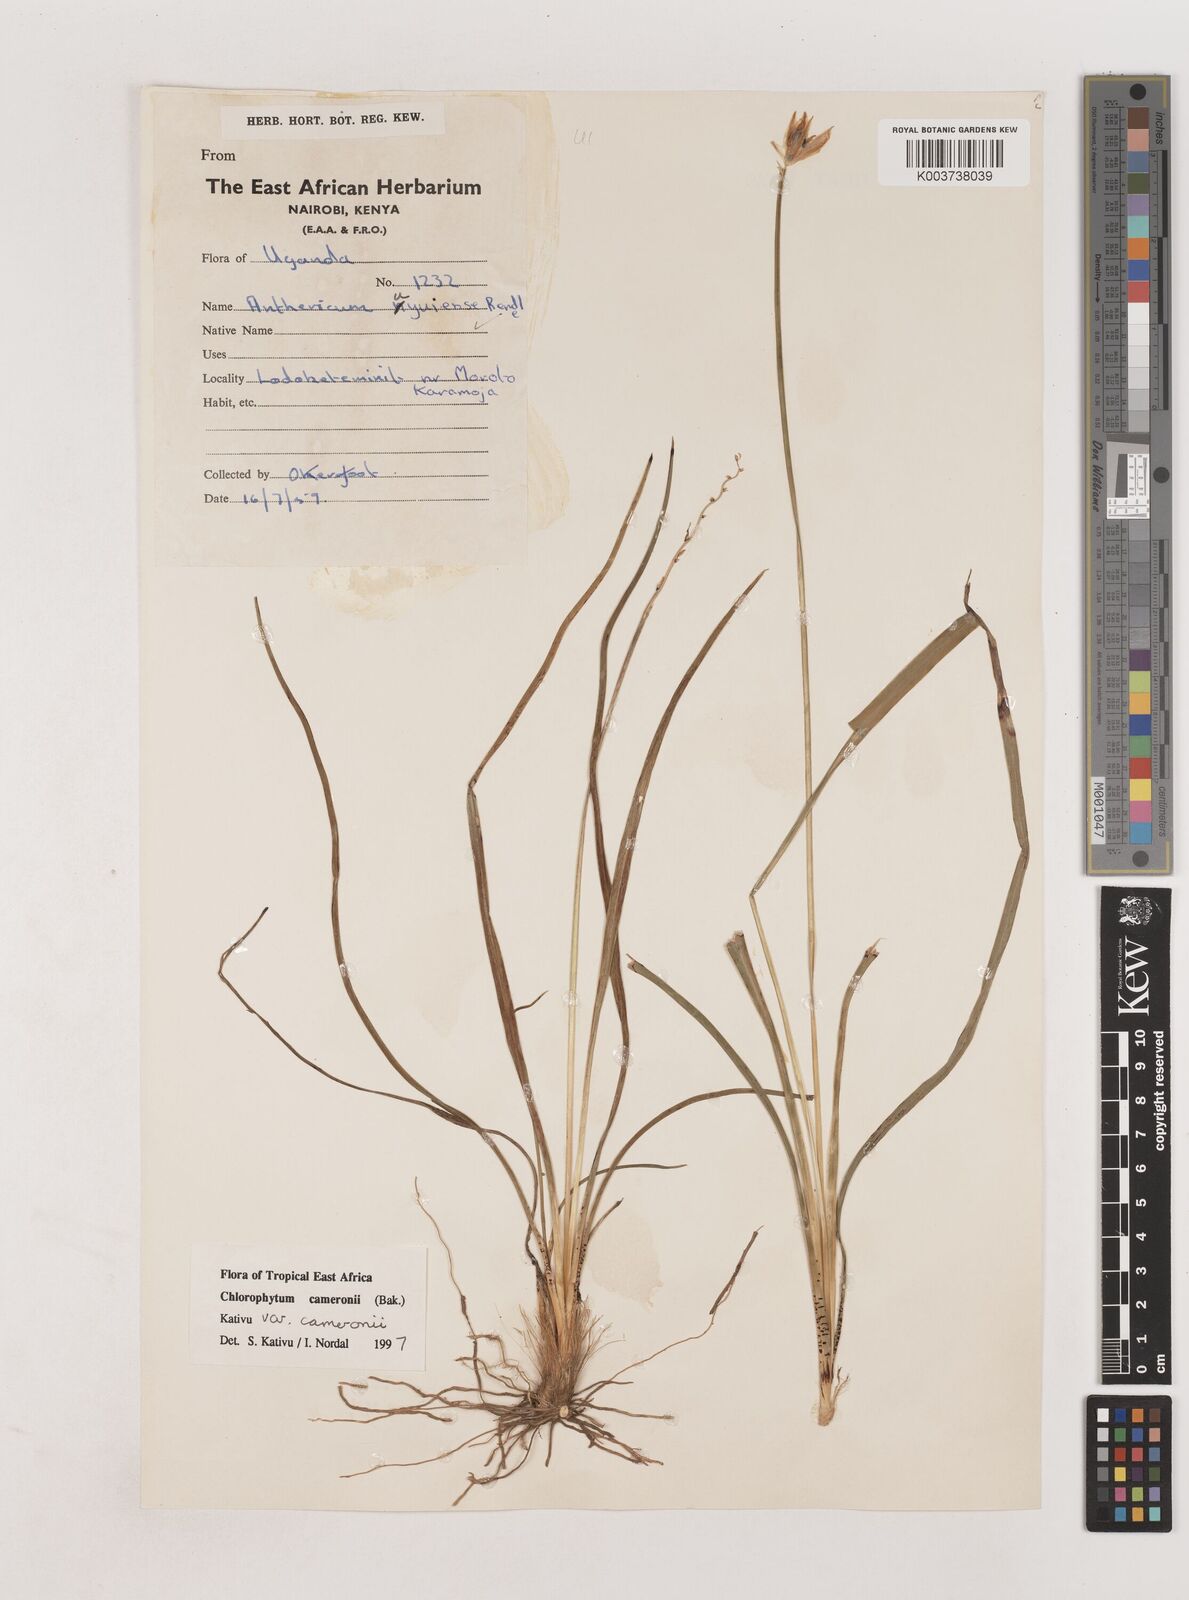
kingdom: Plantae
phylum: Tracheophyta
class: Liliopsida
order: Asparagales
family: Asparagaceae
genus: Chlorophytum
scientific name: Chlorophytum cameronii
